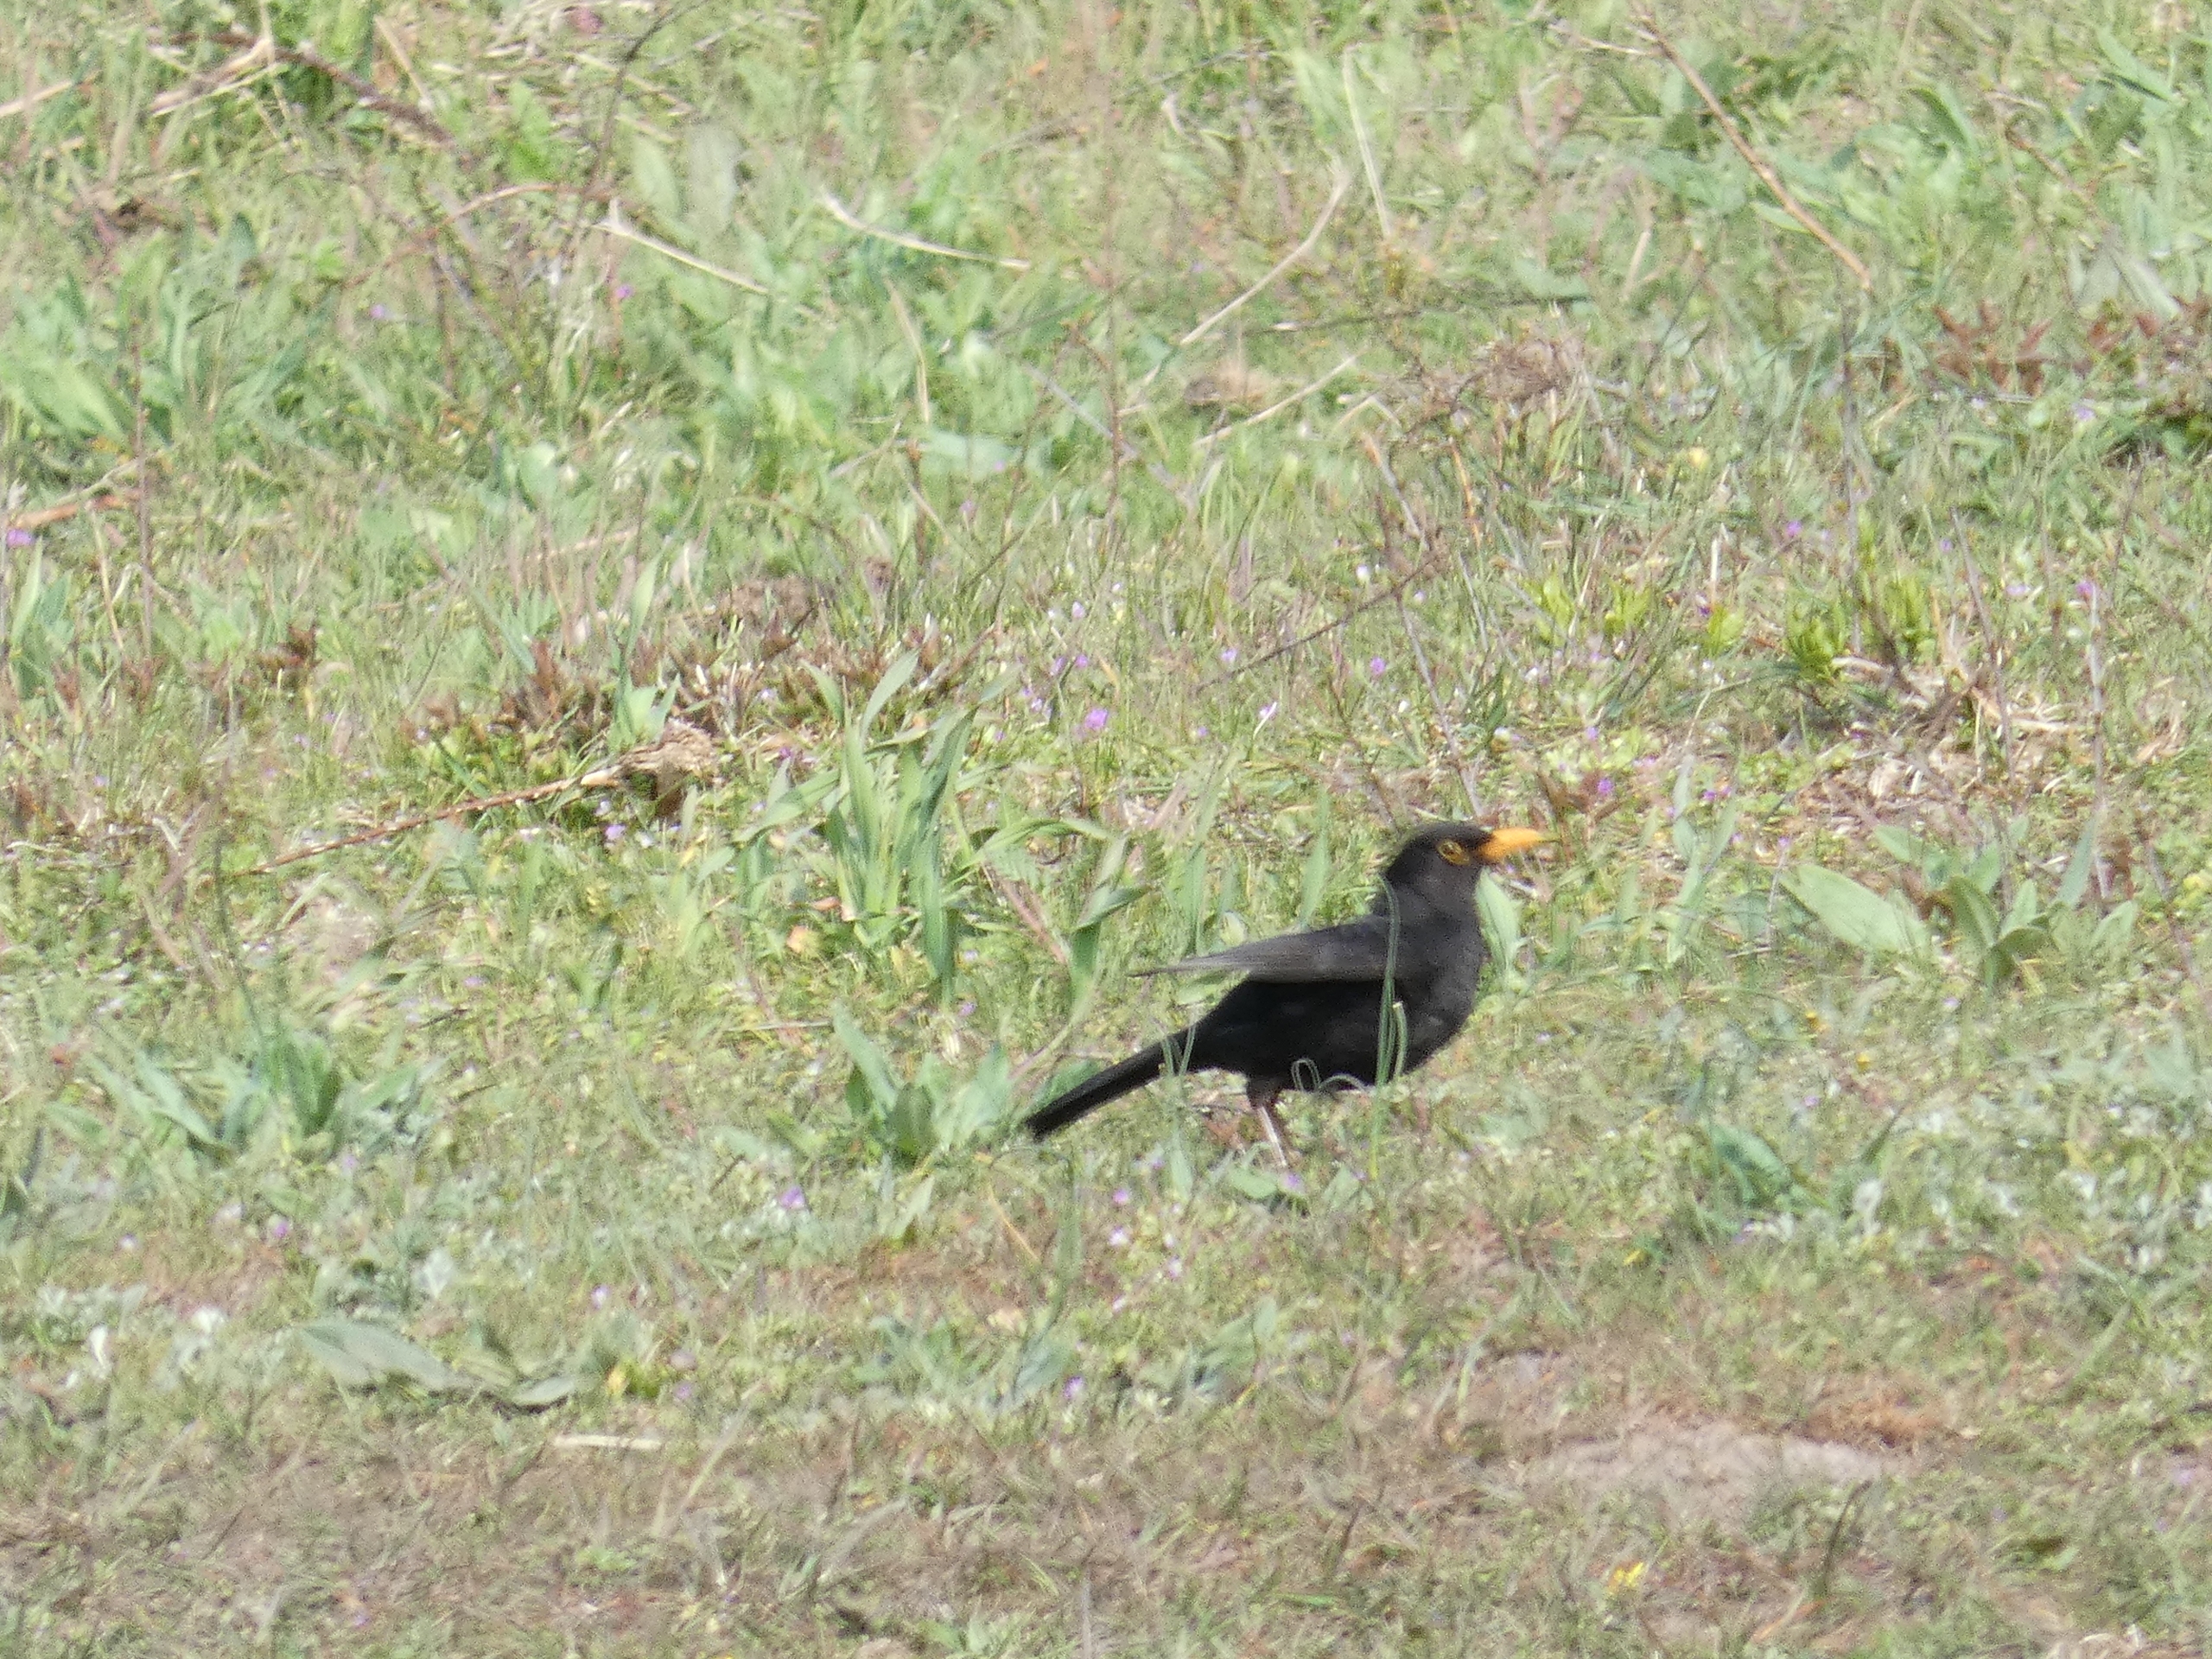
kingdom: Animalia
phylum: Chordata
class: Aves
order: Passeriformes
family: Turdidae
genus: Turdus
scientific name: Turdus merula
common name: Solsort
